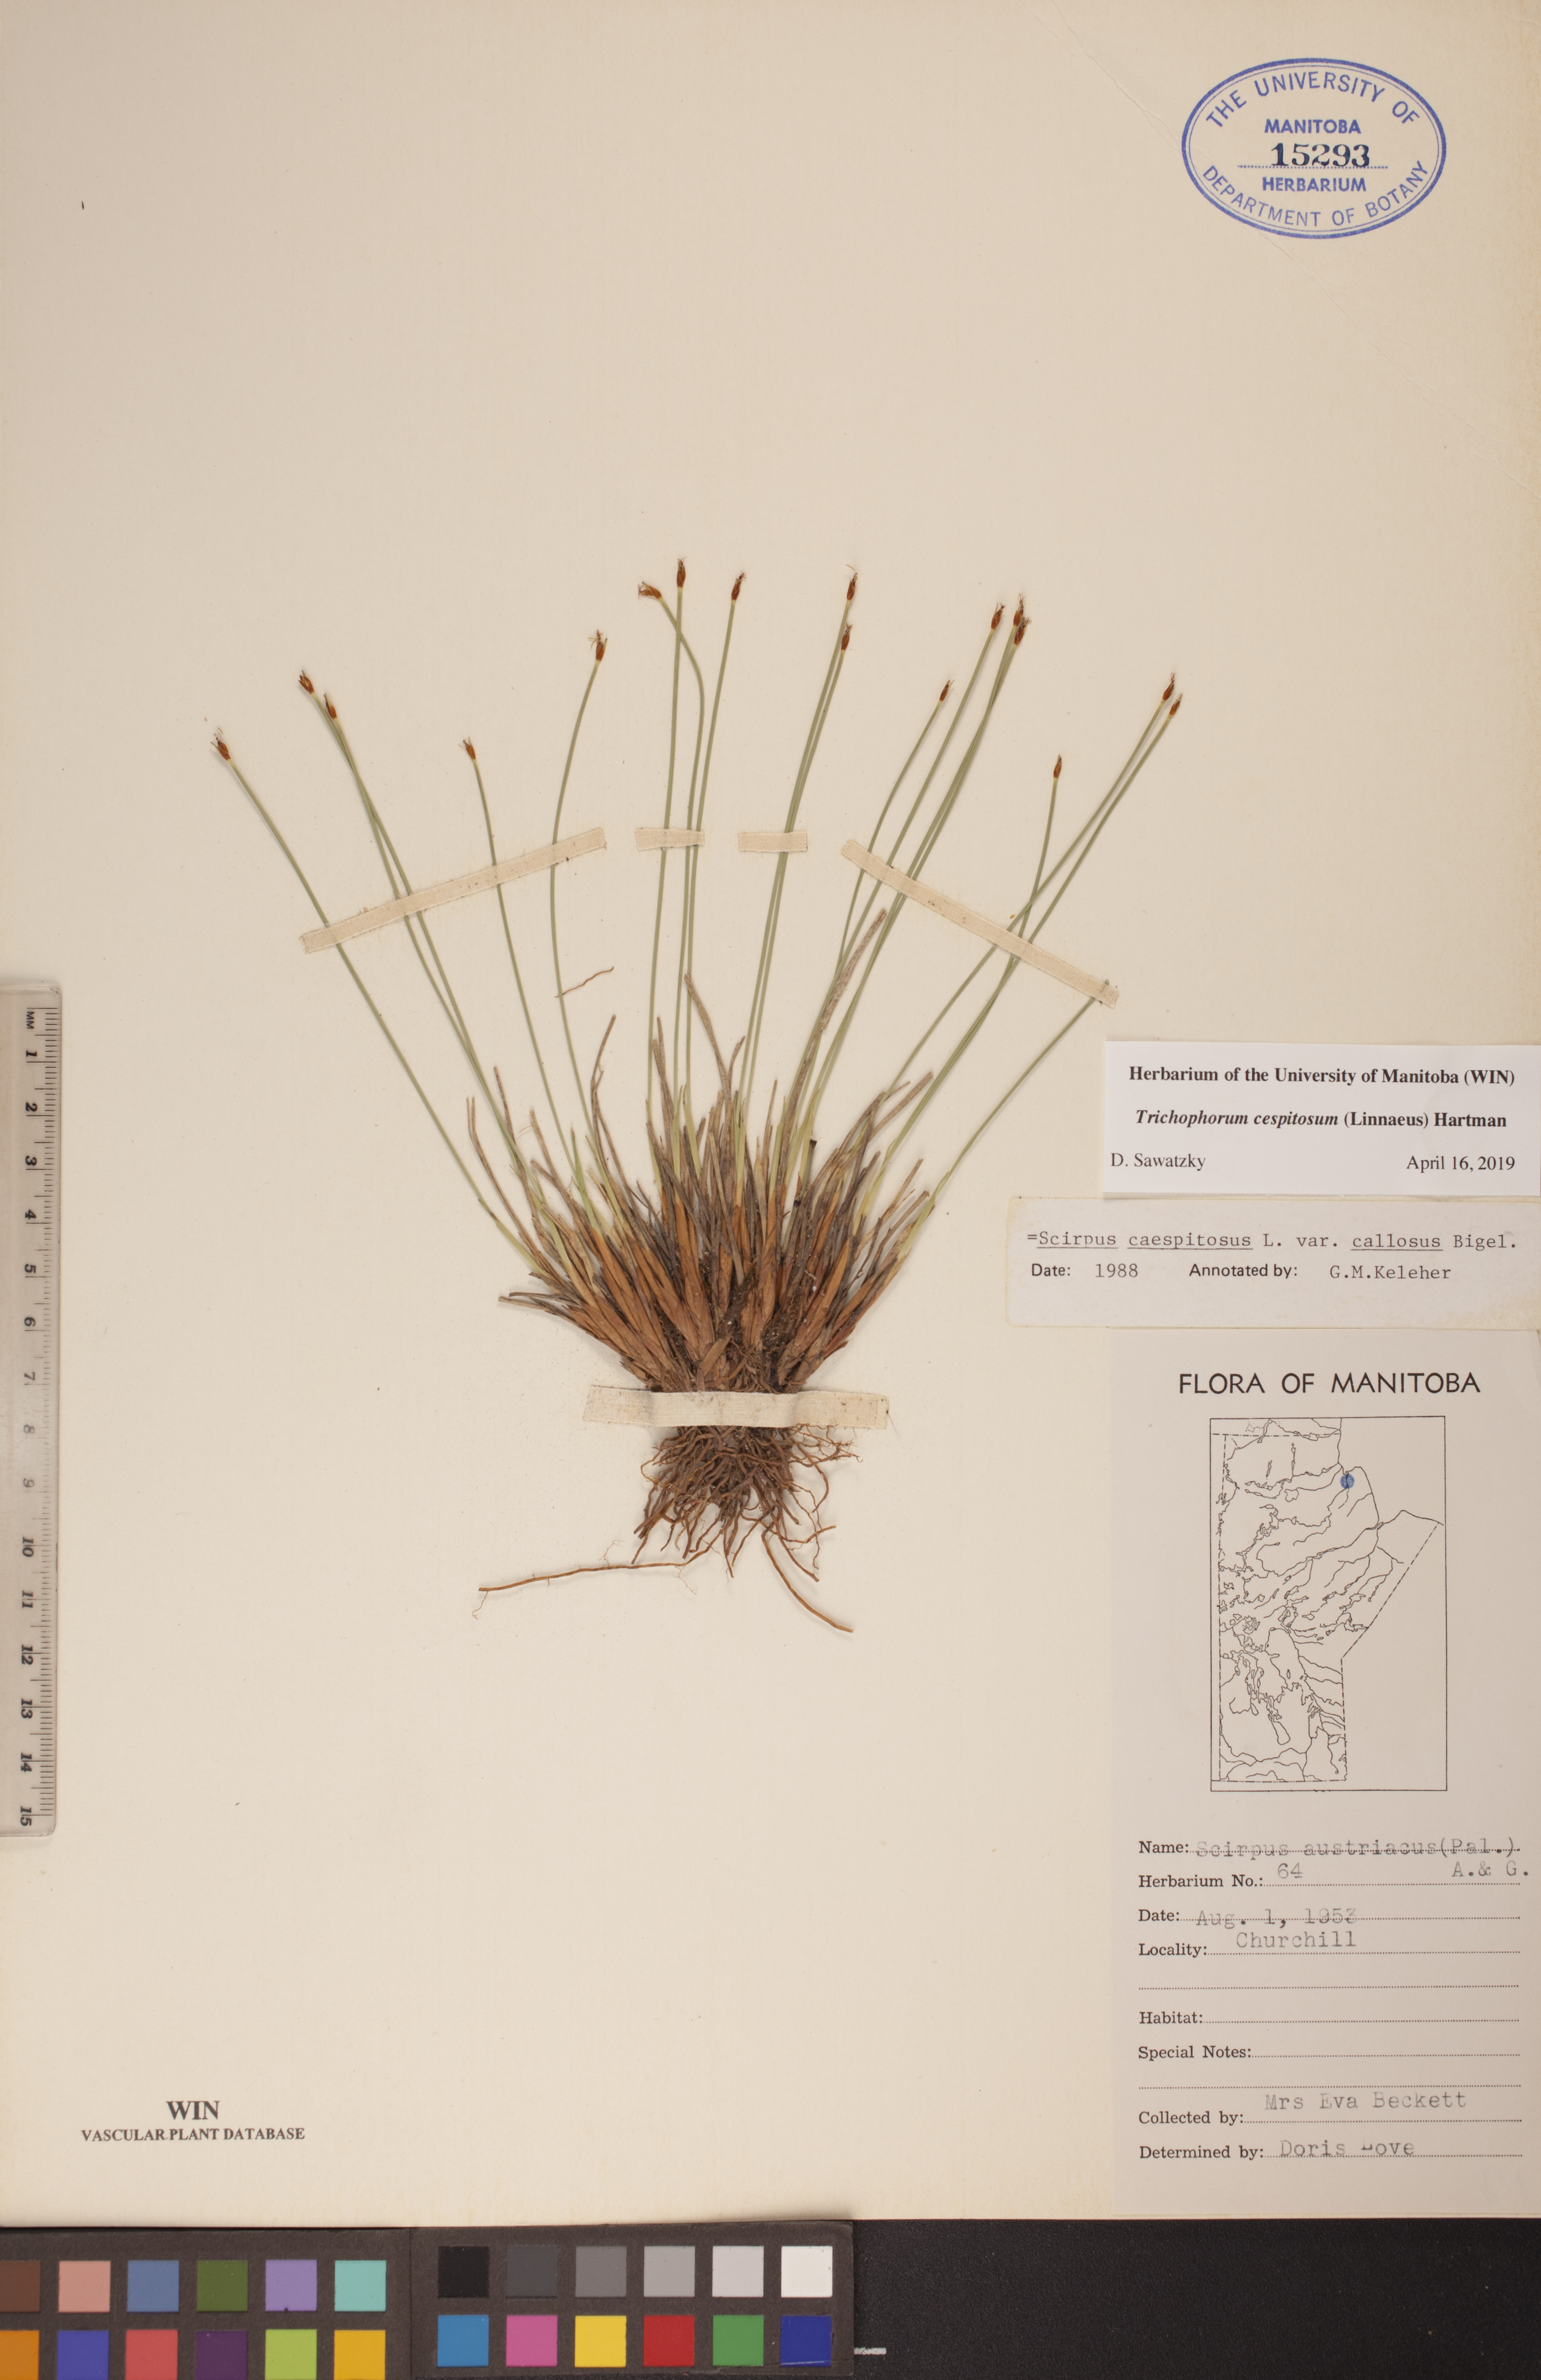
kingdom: Plantae
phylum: Tracheophyta
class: Liliopsida
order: Poales
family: Cyperaceae
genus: Trichophorum
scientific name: Trichophorum cespitosum
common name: Cespitose bulrush
